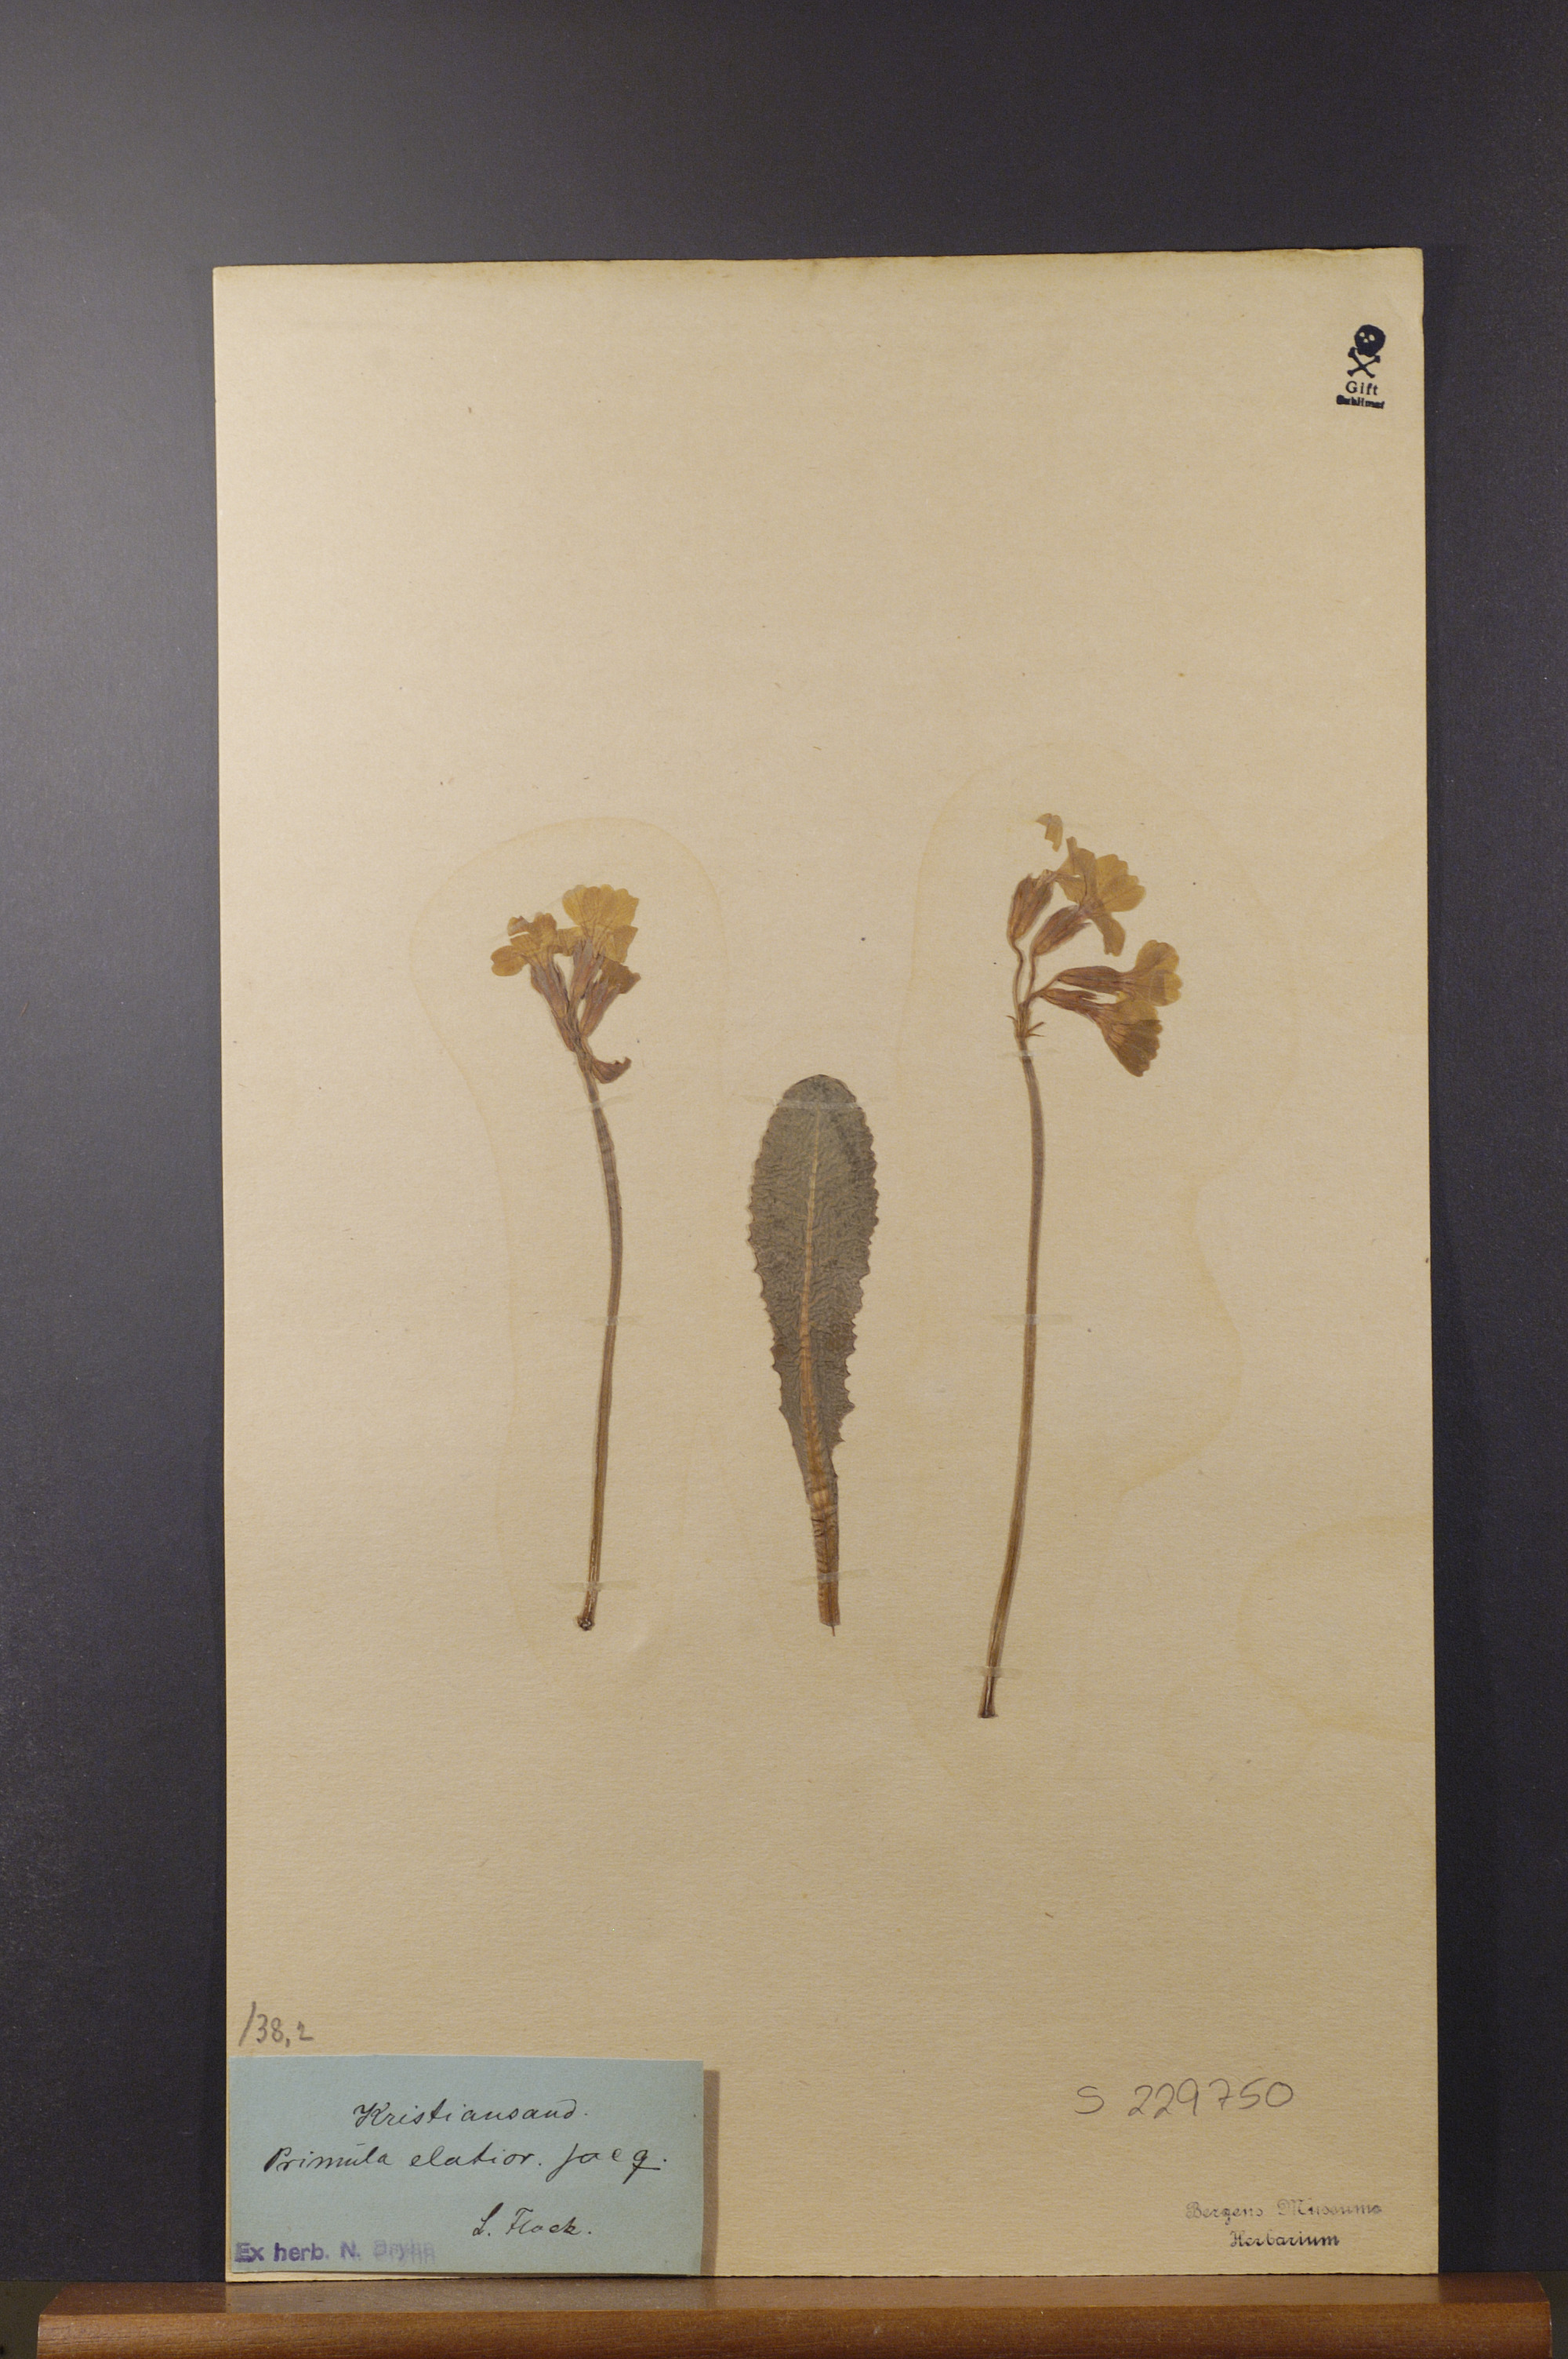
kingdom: Plantae
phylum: Tracheophyta
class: Magnoliopsida
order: Ericales
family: Primulaceae
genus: Primula
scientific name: Primula elatior
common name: Oxlip
